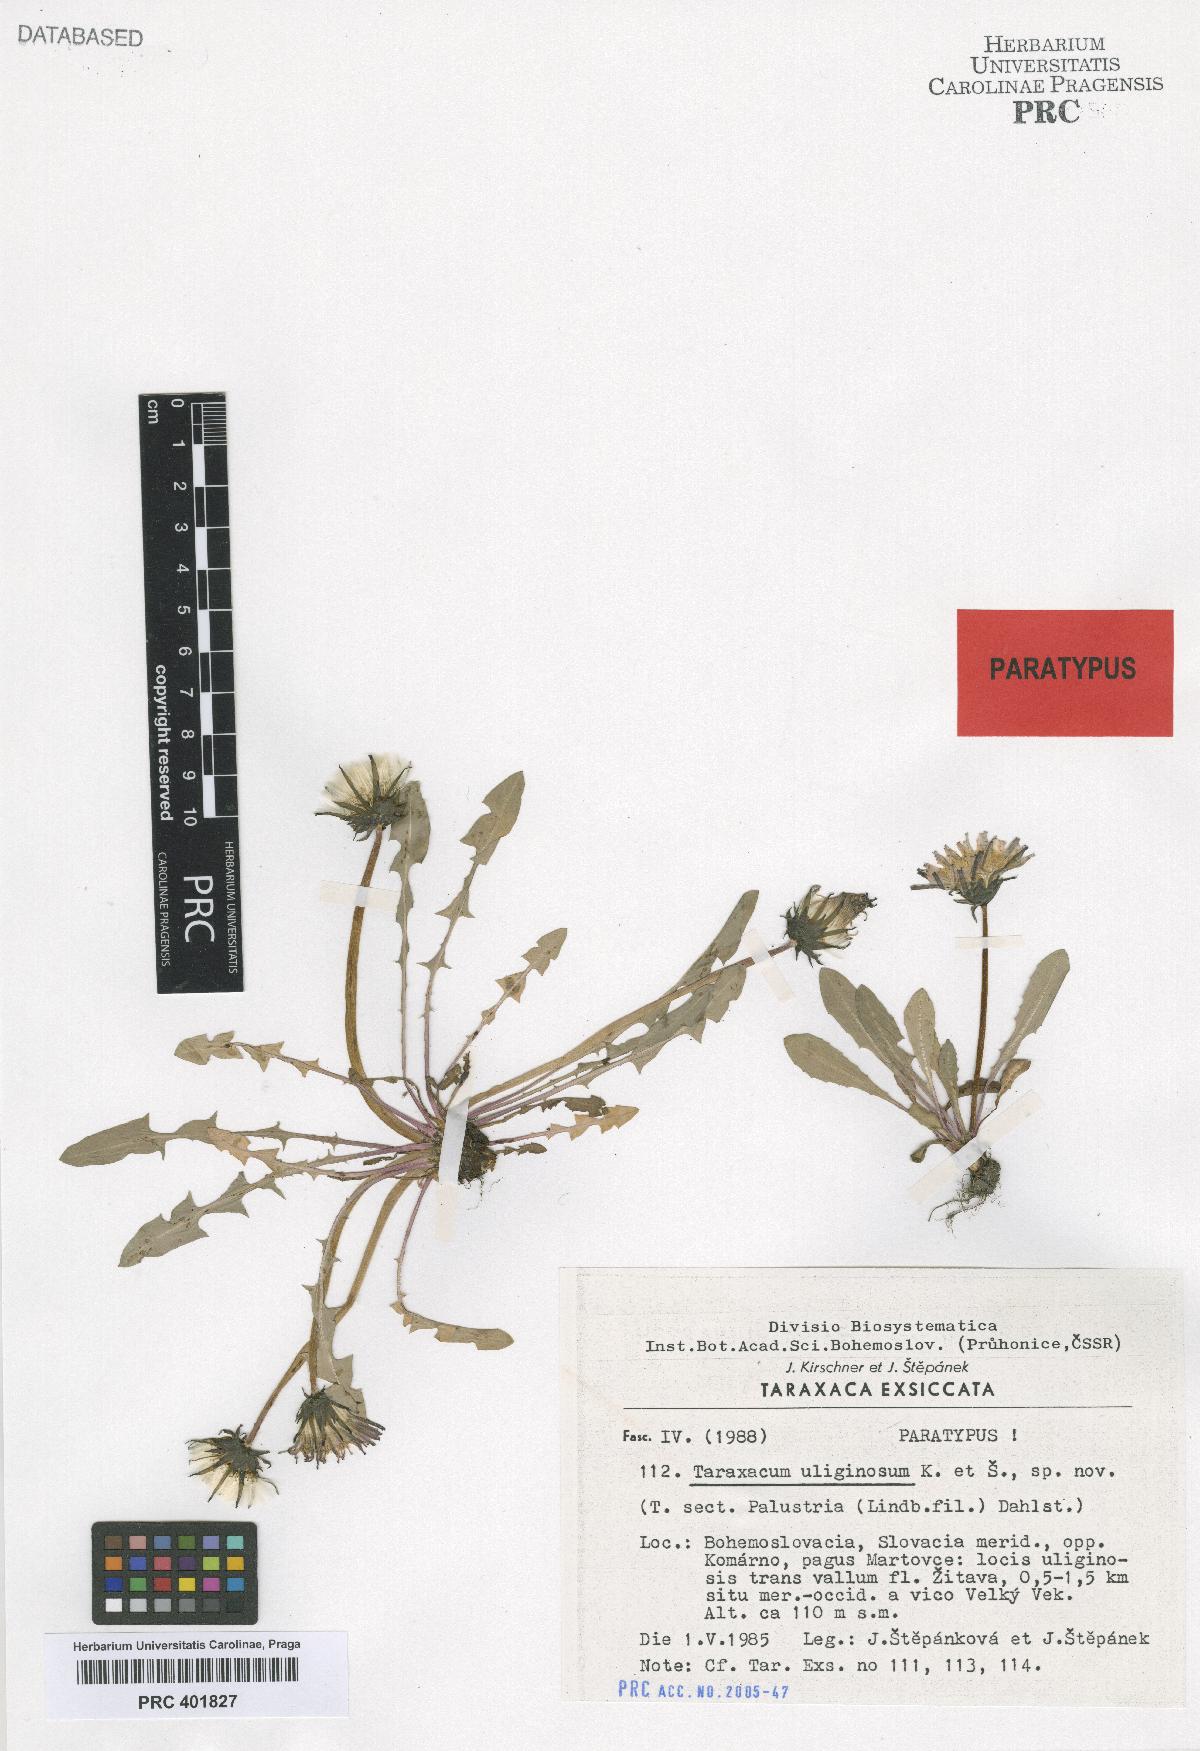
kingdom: Plantae
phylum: Tracheophyta
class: Magnoliopsida
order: Asterales
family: Asteraceae
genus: Taraxacum
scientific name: Taraxacum uliginosum
